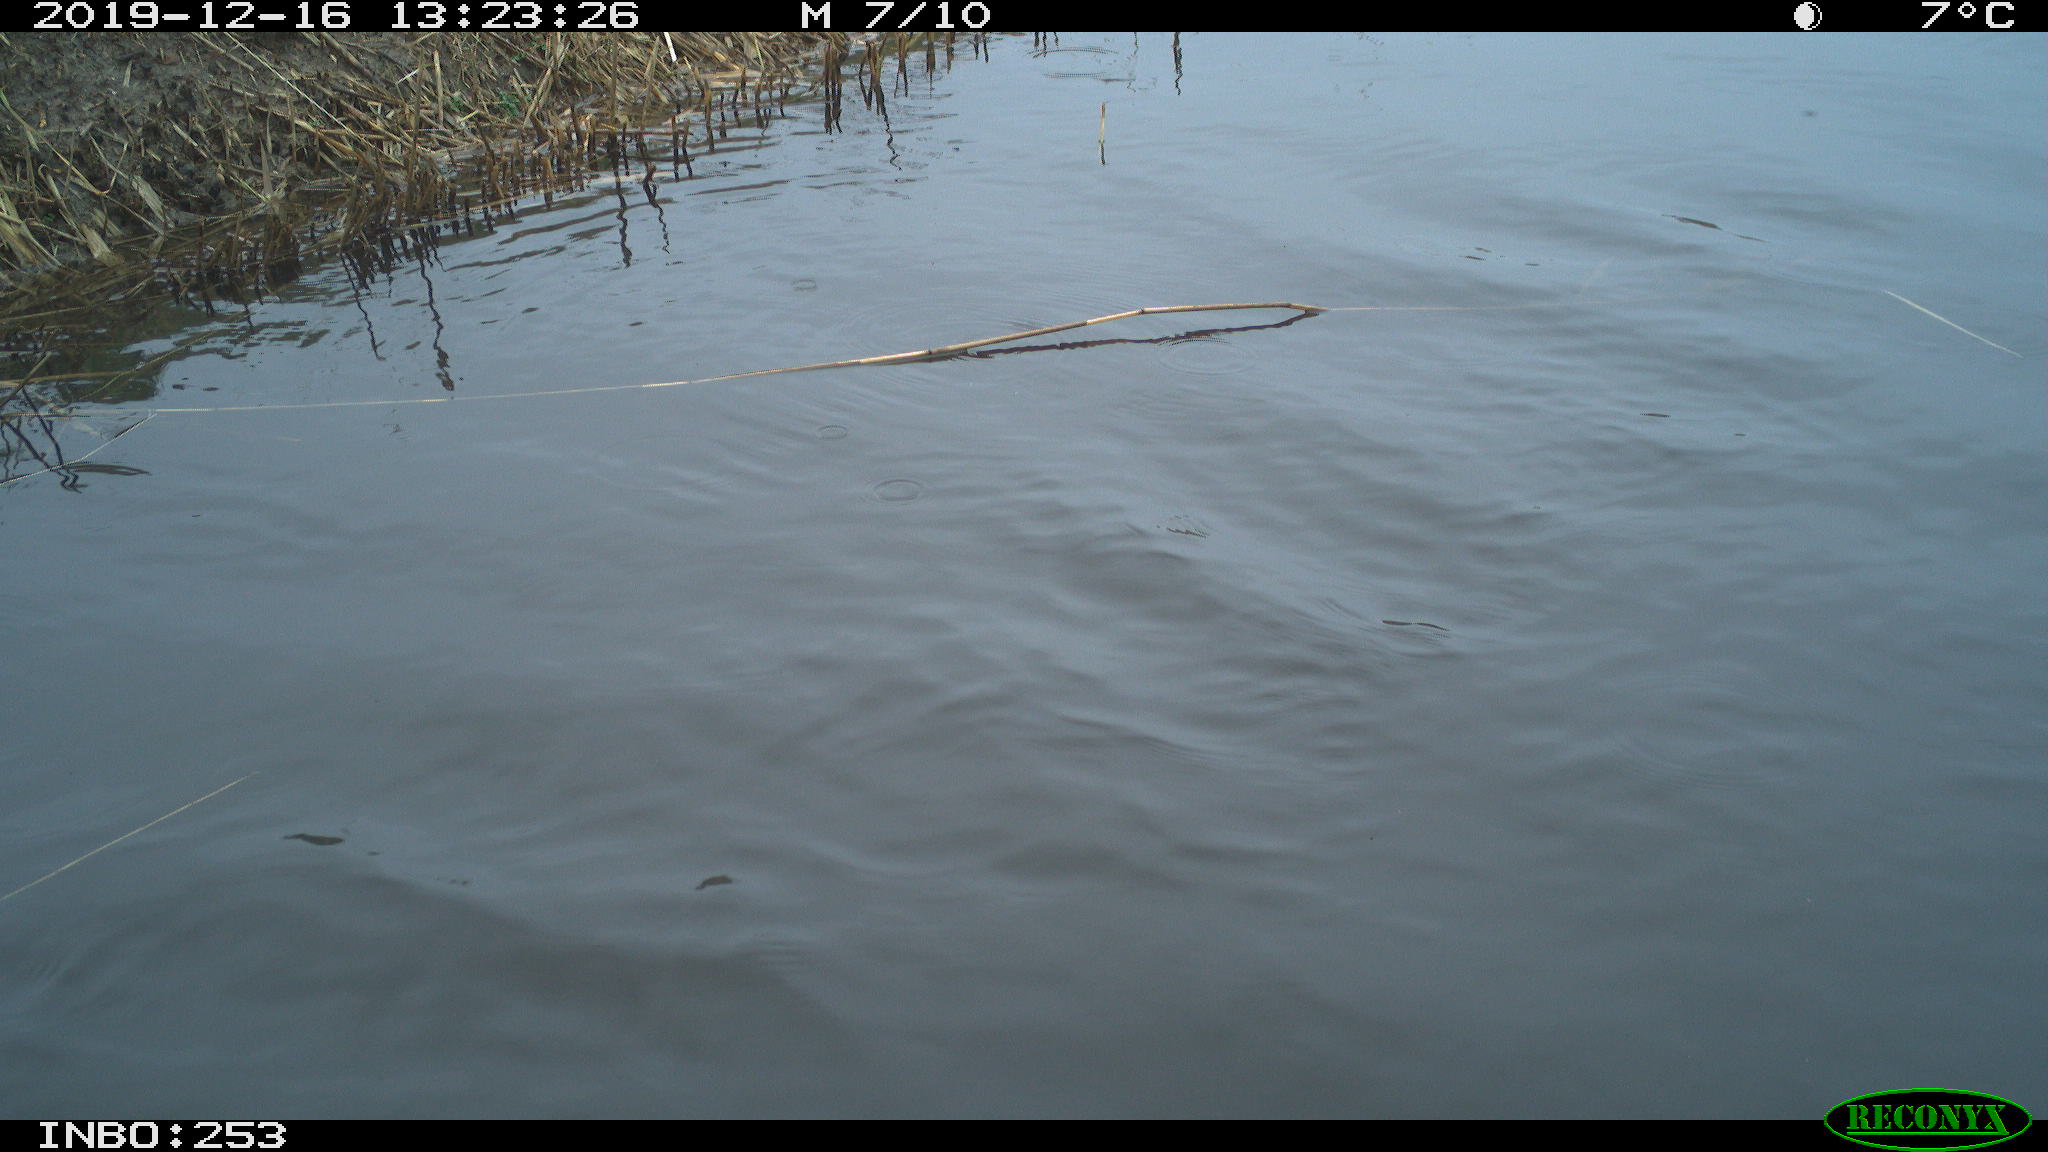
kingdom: Animalia
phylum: Chordata
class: Aves
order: Gruiformes
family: Rallidae
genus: Gallinula
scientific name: Gallinula chloropus
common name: Common moorhen
